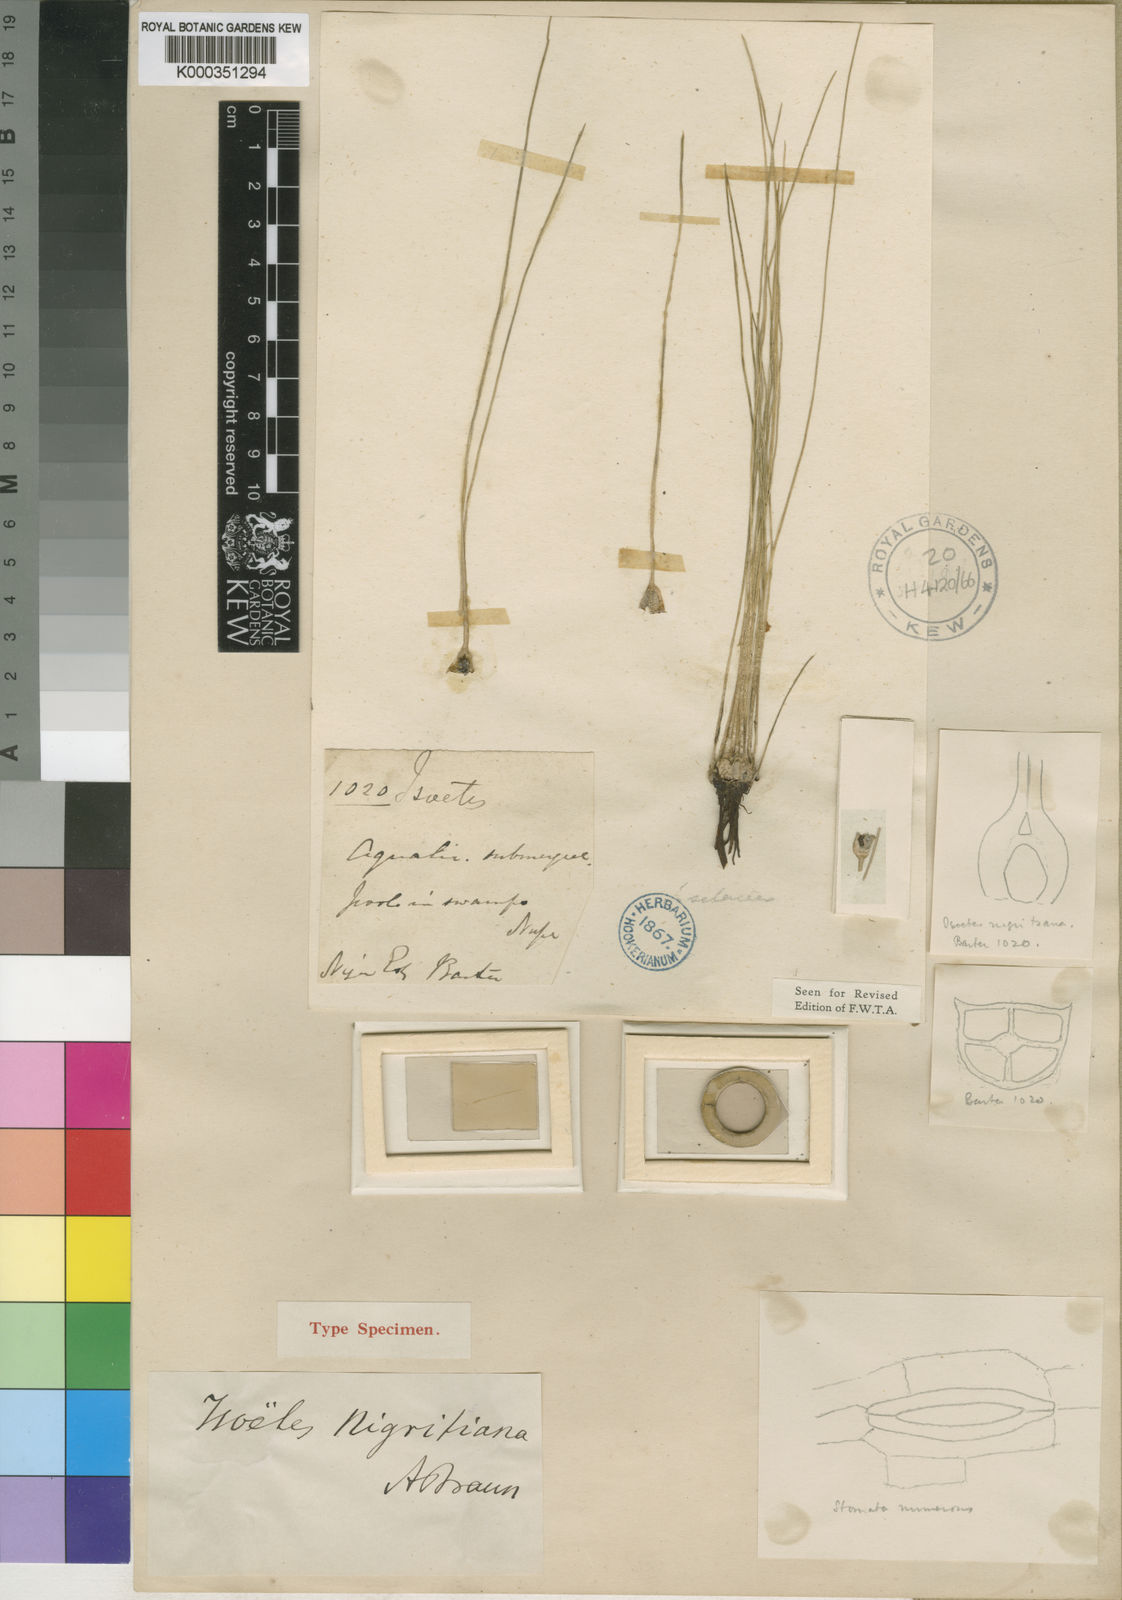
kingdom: Plantae
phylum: Tracheophyta
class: Lycopodiopsida
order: Isoetales
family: Isoetaceae
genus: Isoetes
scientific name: Isoetes nigritiana
